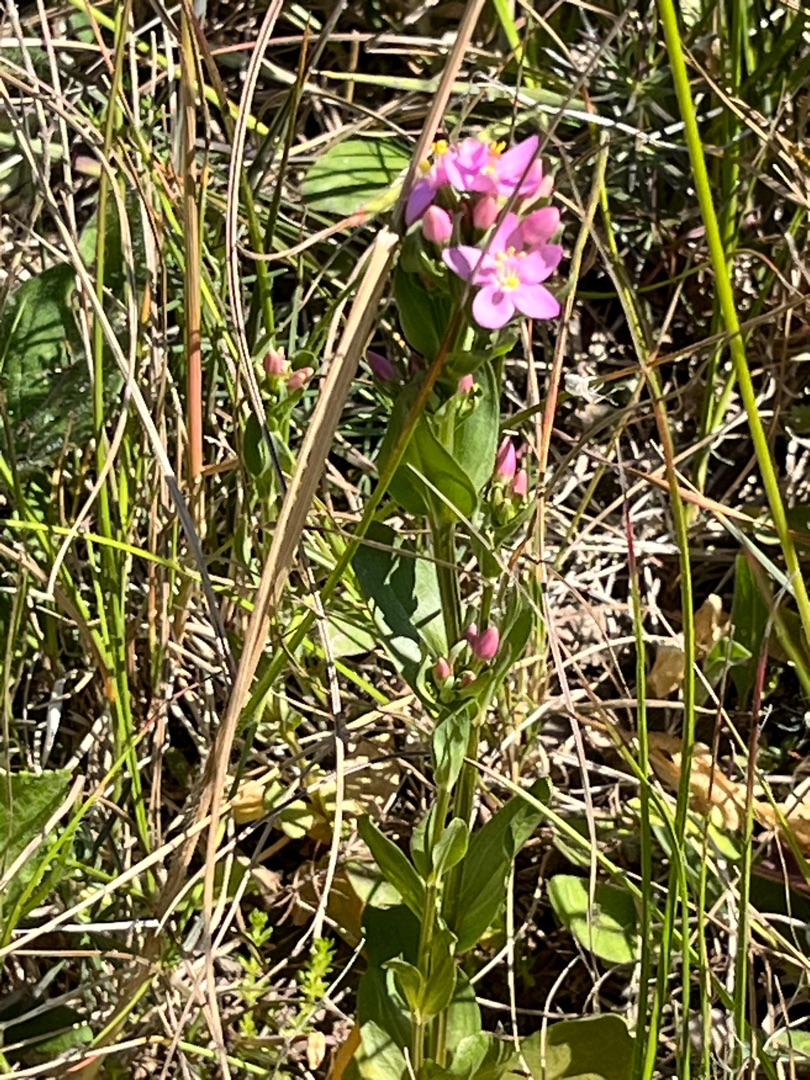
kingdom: Plantae
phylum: Tracheophyta
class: Magnoliopsida
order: Gentianales
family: Gentianaceae
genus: Centaurium
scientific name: Centaurium erythraea
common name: Mark-tusindgylden
